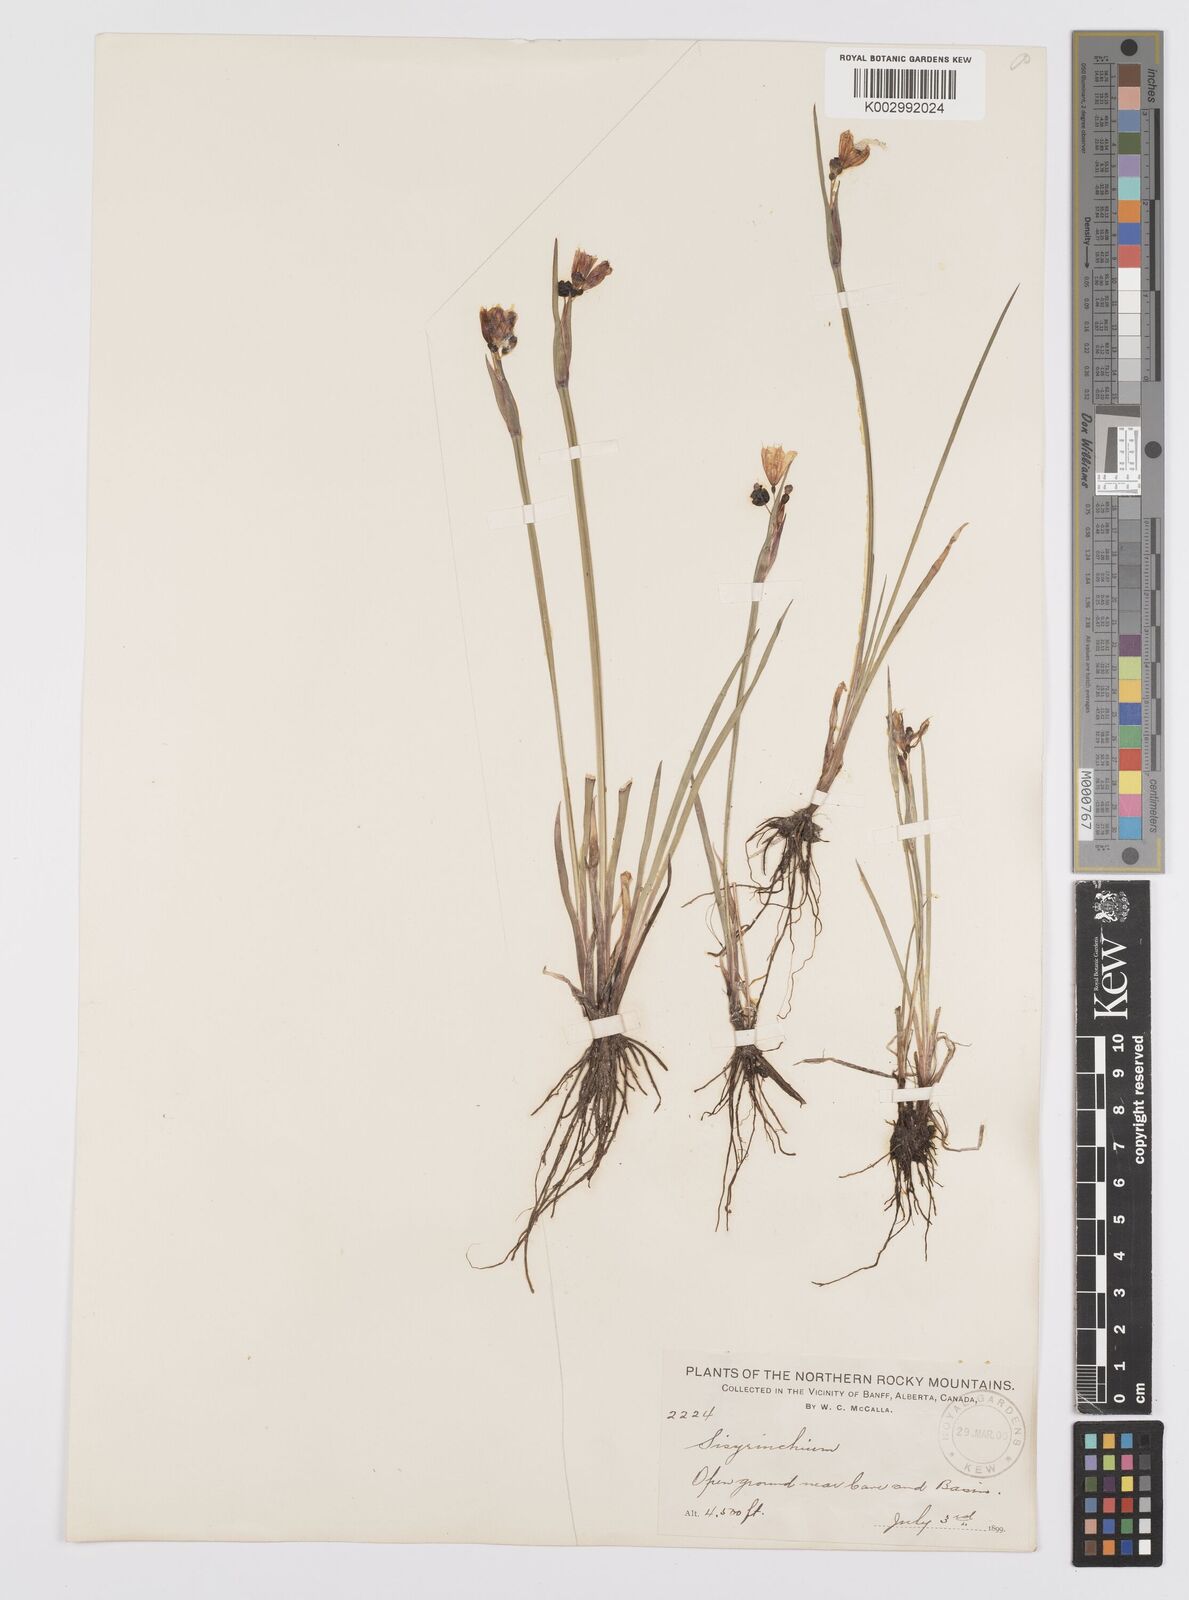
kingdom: Plantae
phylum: Tracheophyta
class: Liliopsida
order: Asparagales
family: Iridaceae
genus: Sisyrinchium
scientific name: Sisyrinchium
